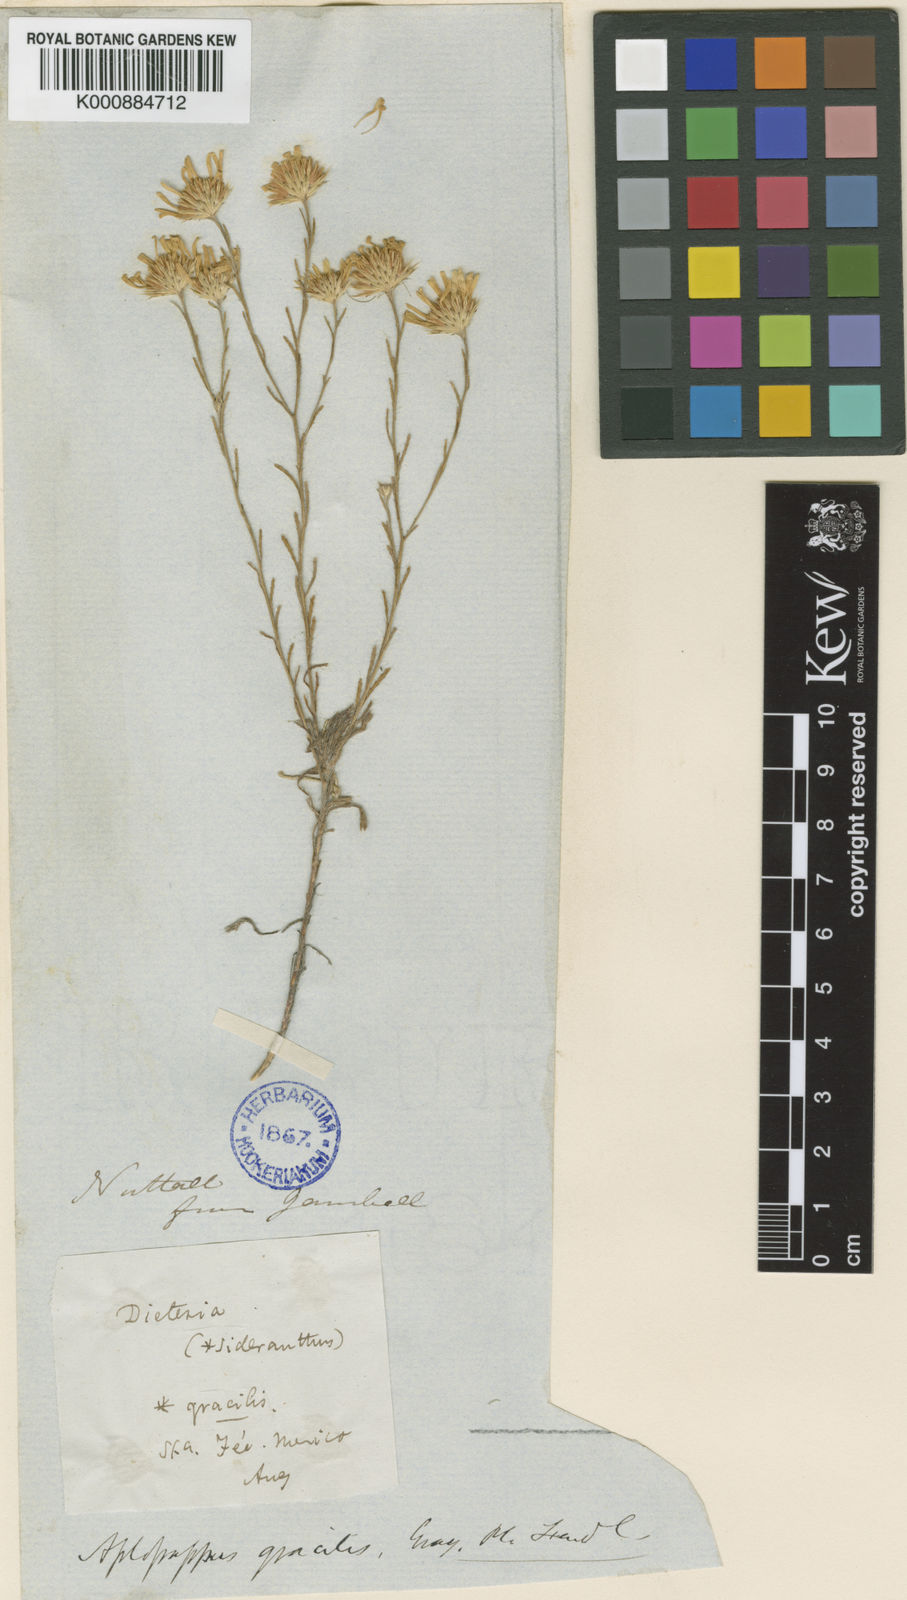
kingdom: Plantae
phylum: Tracheophyta
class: Magnoliopsida
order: Asterales
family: Asteraceae
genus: Xanthisma
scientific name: Xanthisma gracile
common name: Slender goldenweed
